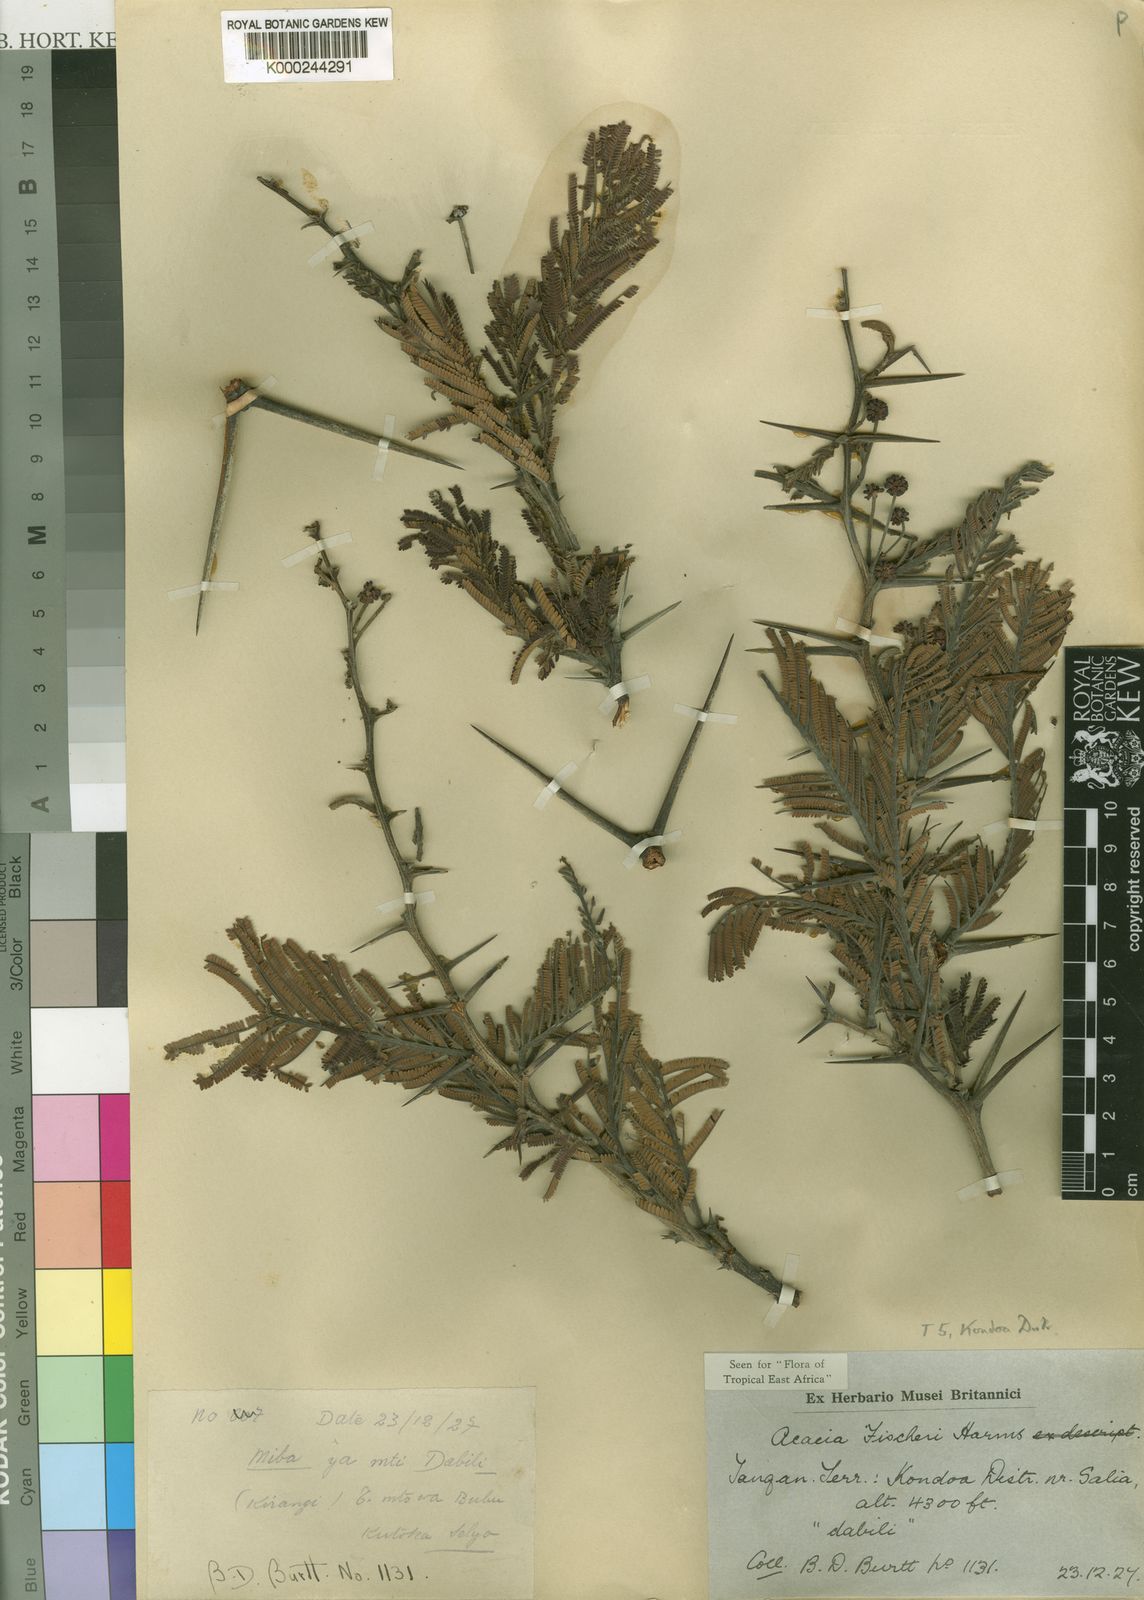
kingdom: Plantae
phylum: Tracheophyta
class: Magnoliopsida
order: Fabales
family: Fabaceae
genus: Vachellia
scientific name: Vachellia fischeri
